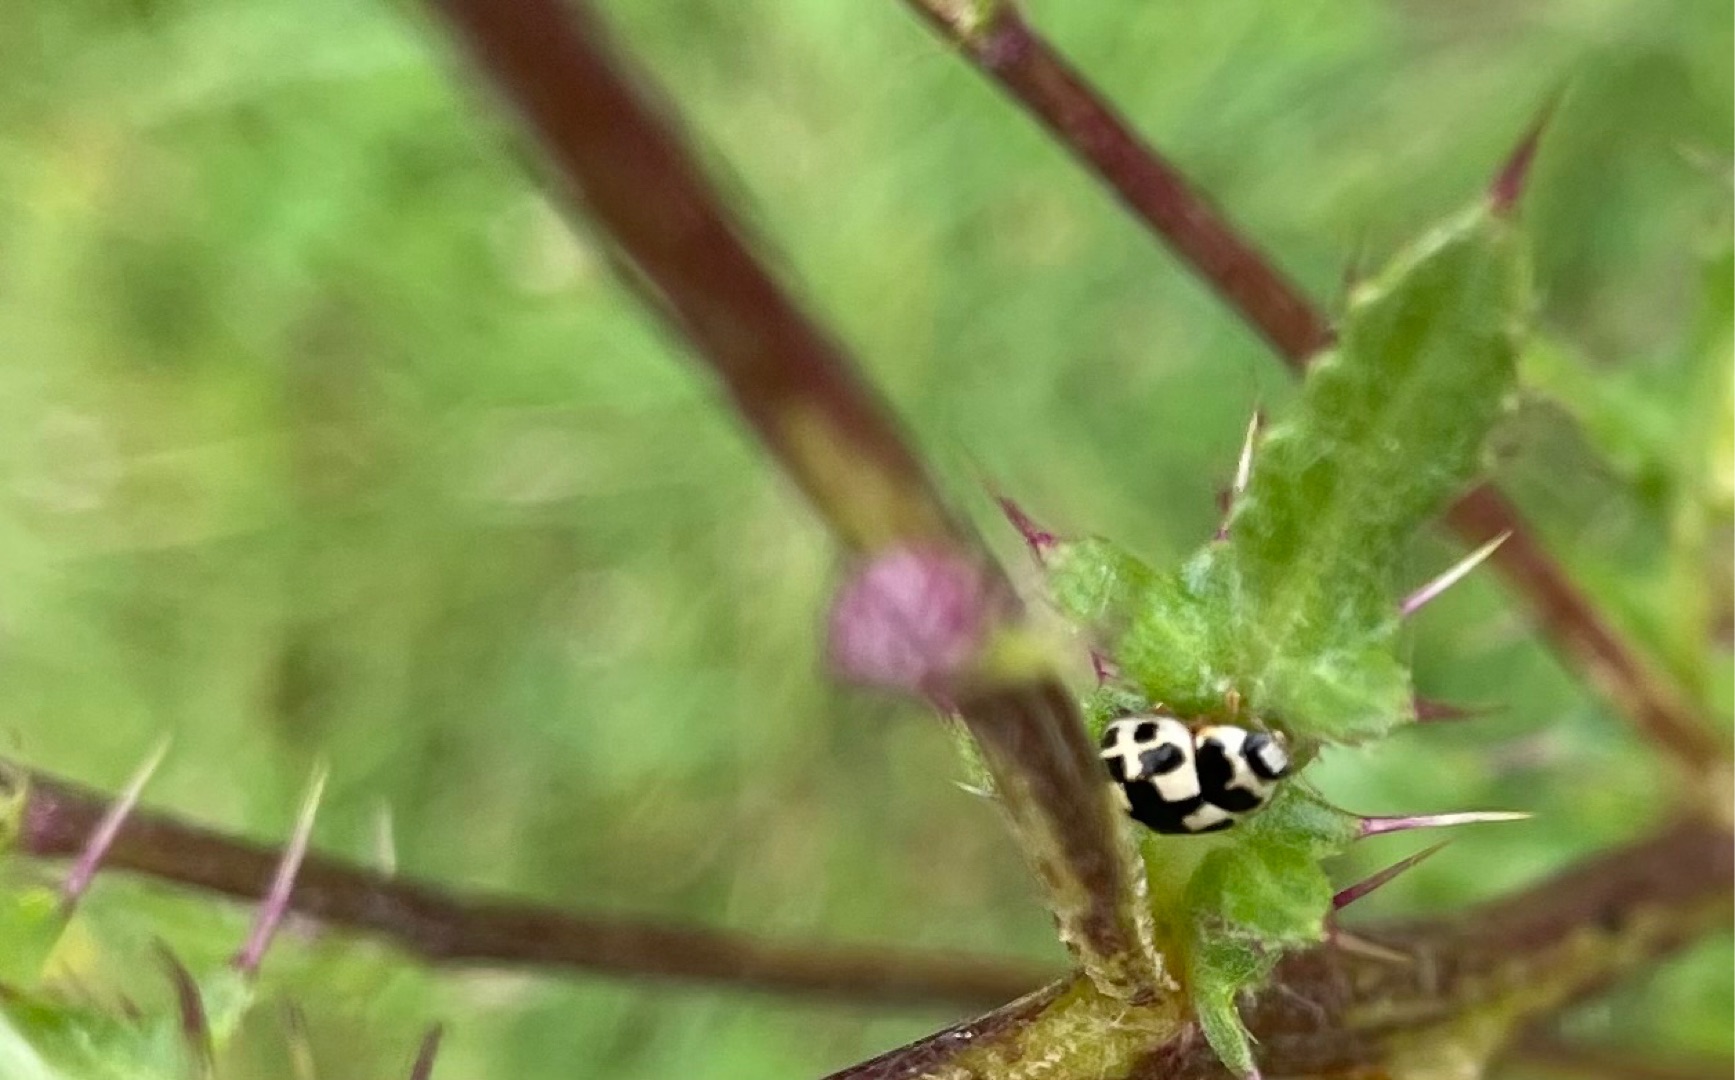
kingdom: Animalia
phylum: Arthropoda
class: Insecta
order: Coleoptera
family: Coccinellidae
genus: Propylaea
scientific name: Propylaea quatuordecimpunctata
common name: Skakbræt
